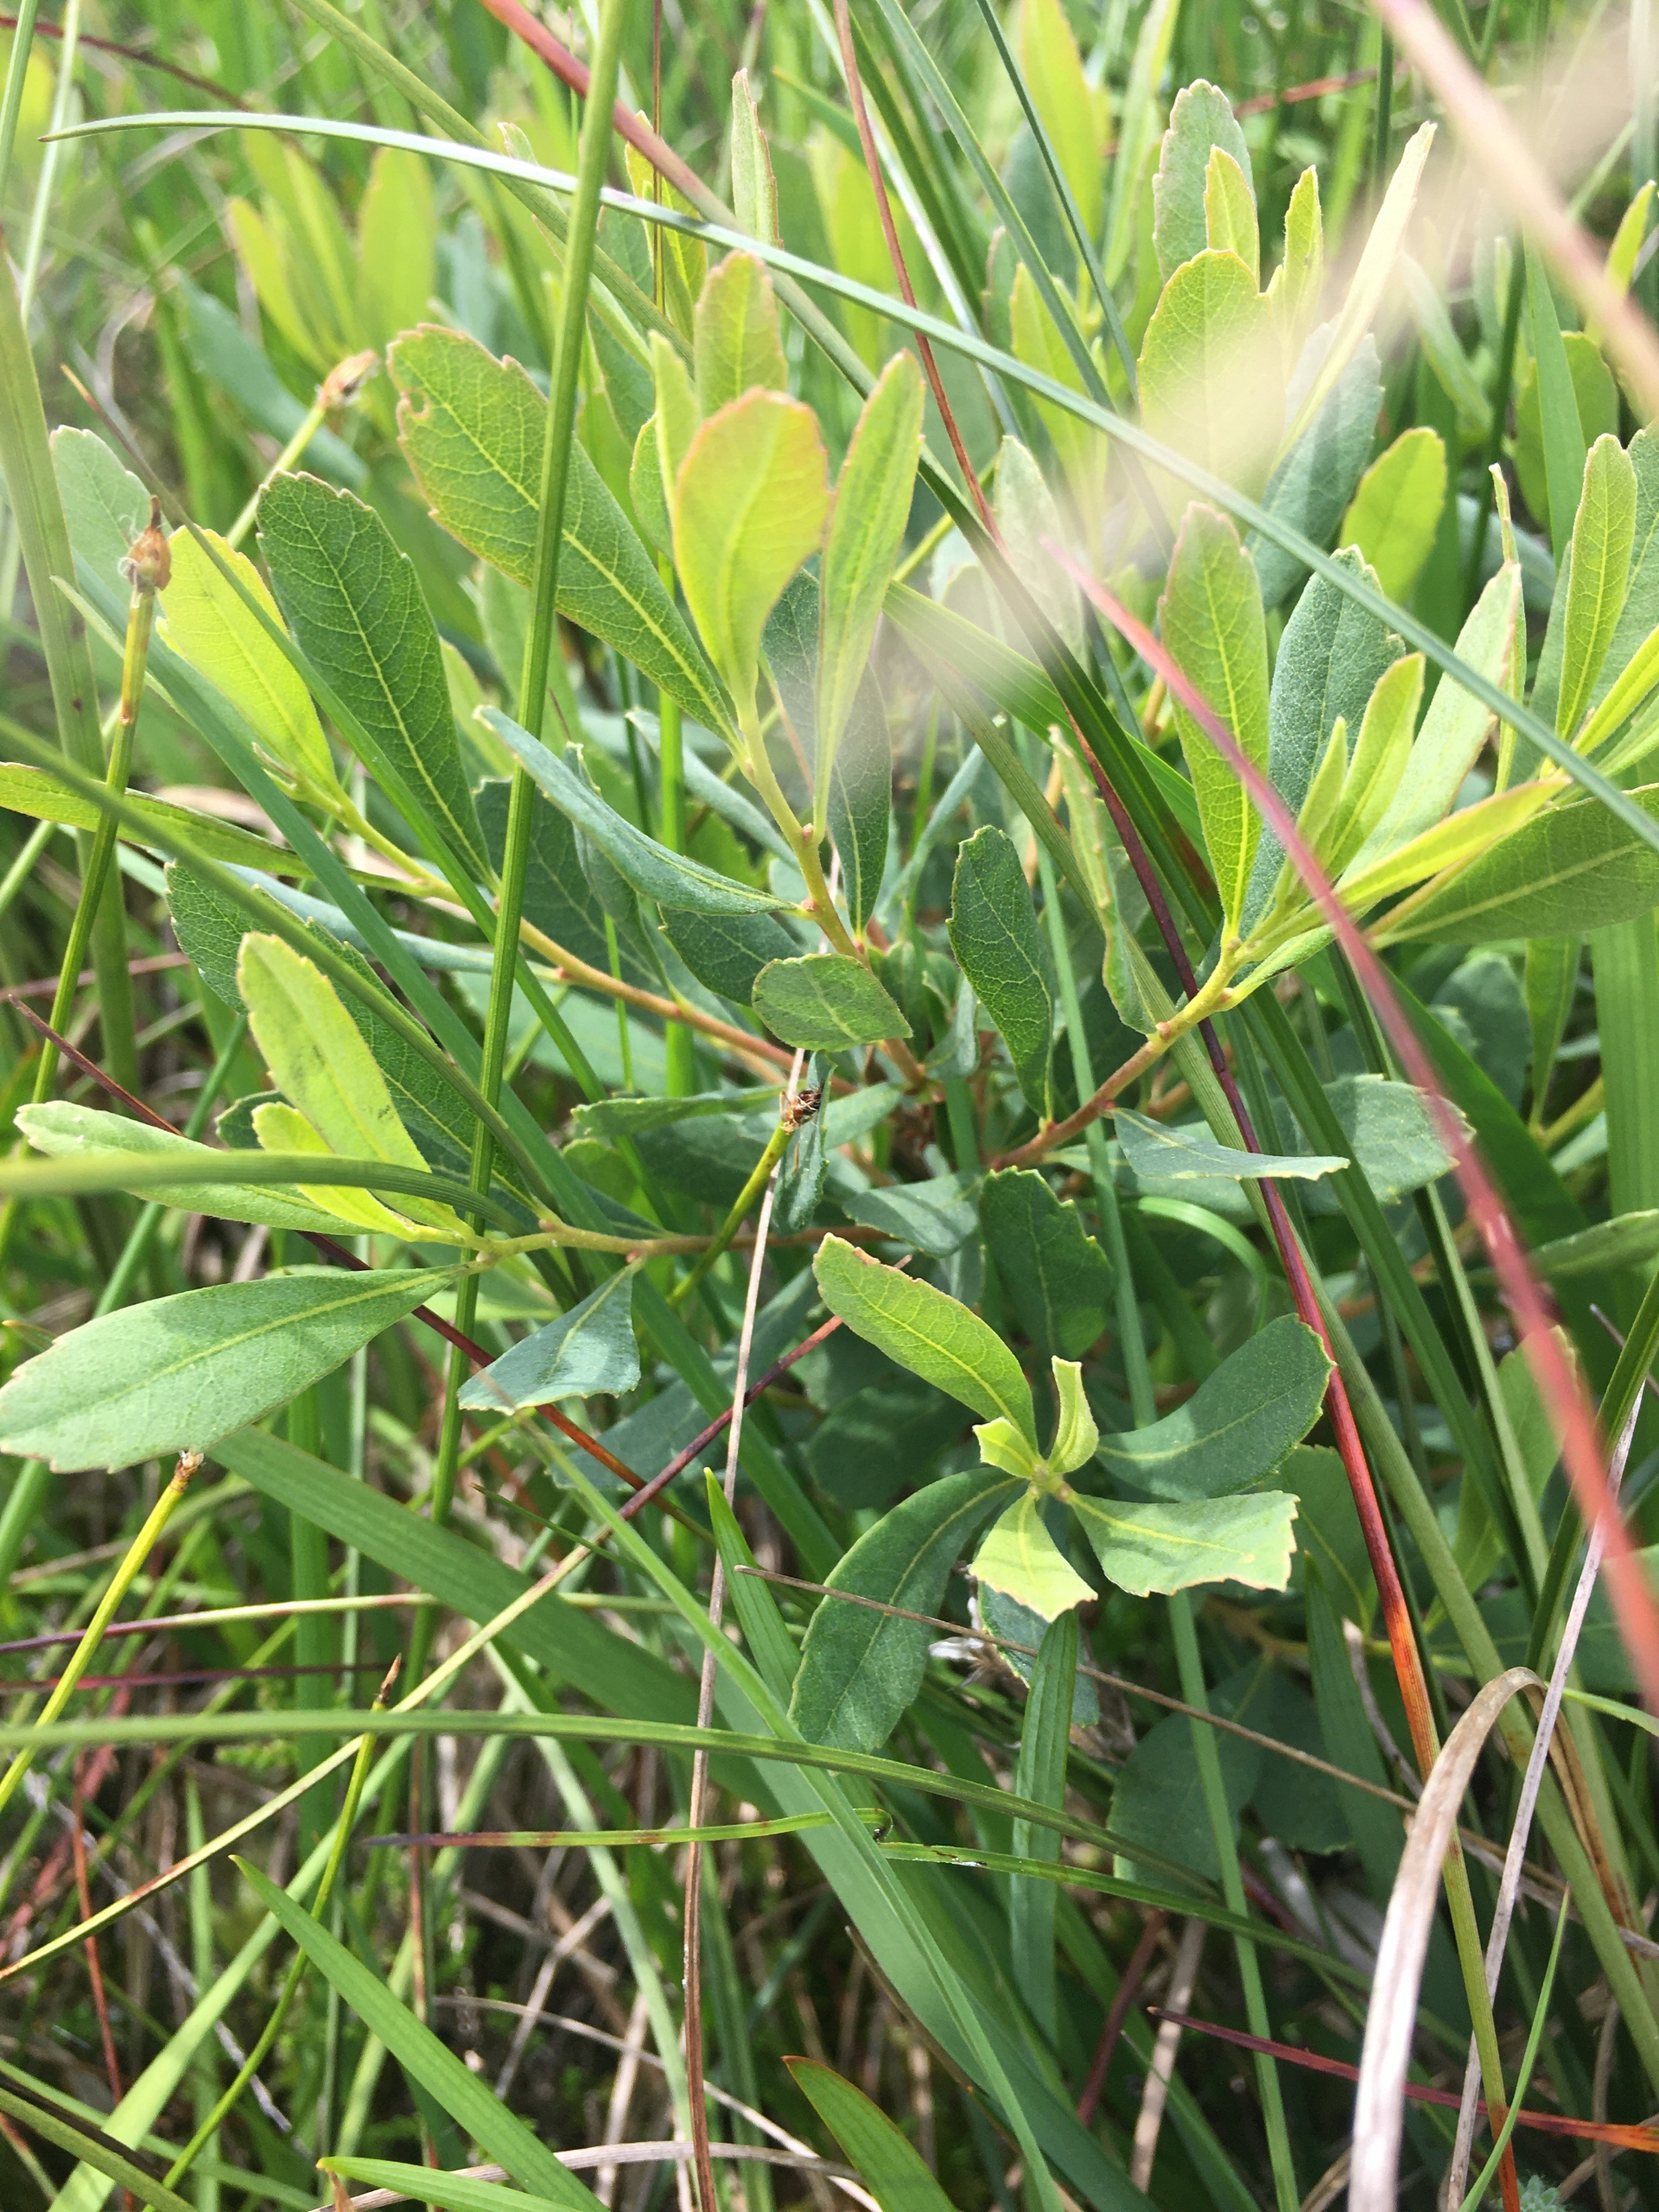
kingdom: Plantae
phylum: Tracheophyta
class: Magnoliopsida
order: Fagales
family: Myricaceae
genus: Myrica
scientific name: Myrica gale
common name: Pors
